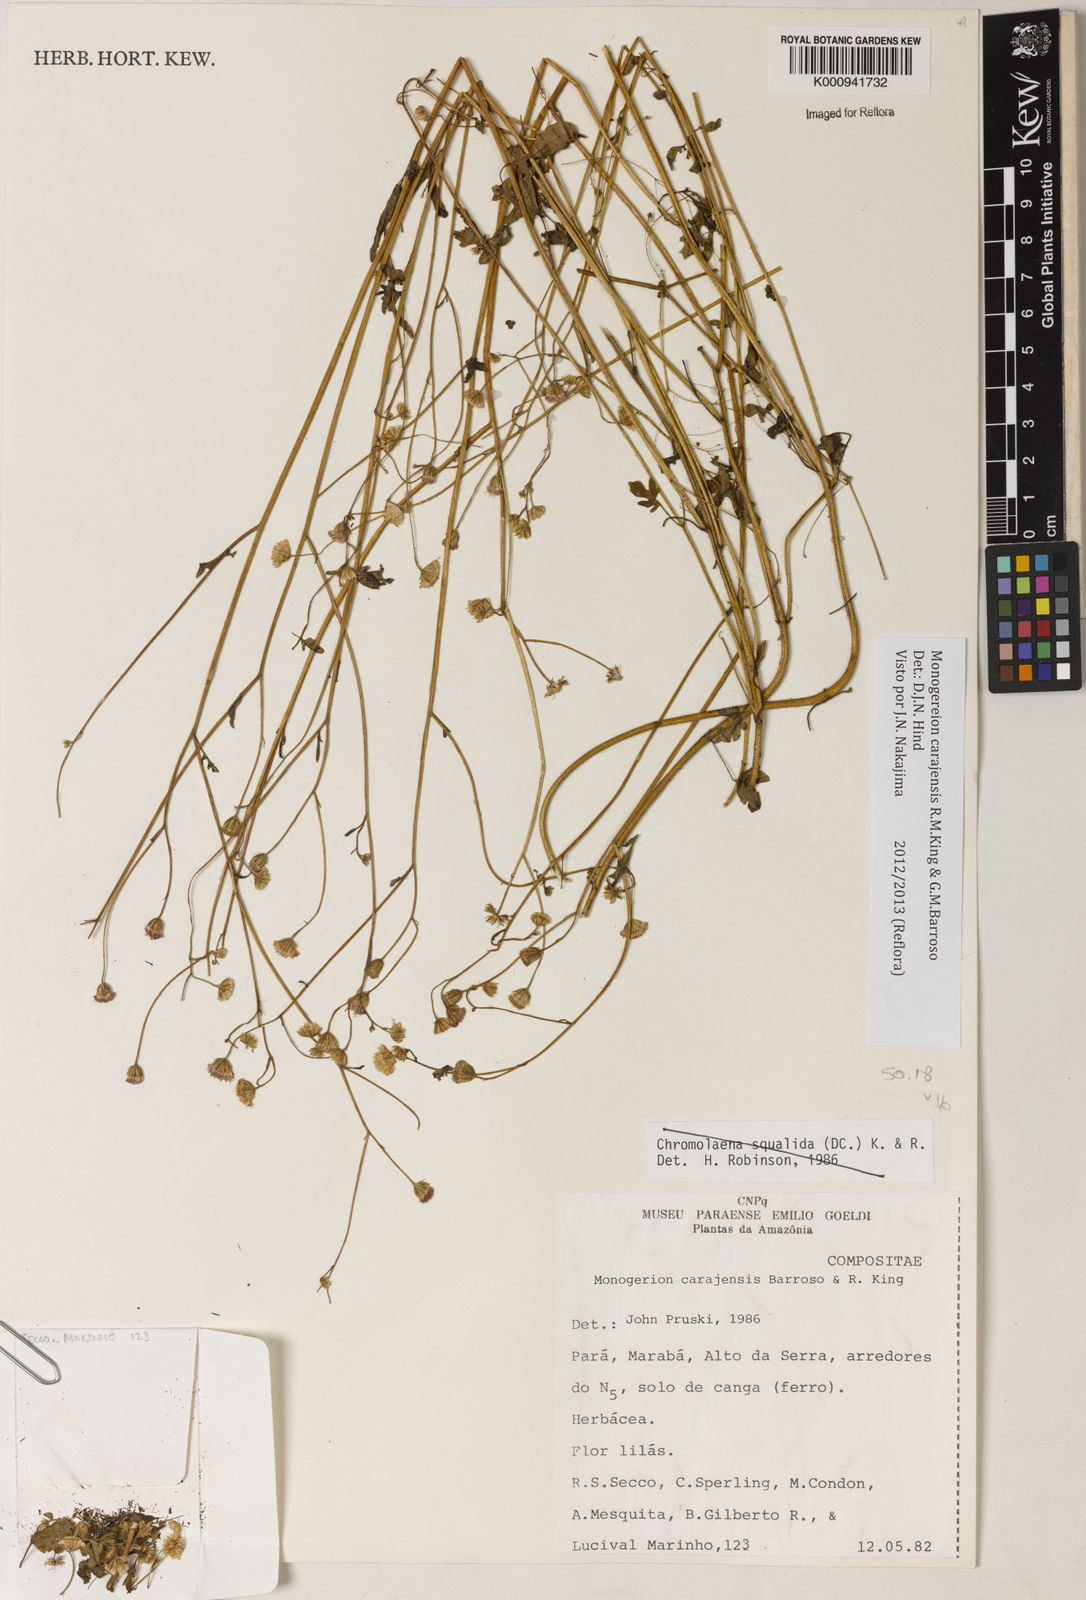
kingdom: Plantae
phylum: Tracheophyta
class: Magnoliopsida
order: Asterales
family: Asteraceae
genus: Monogereion
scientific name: Monogereion carajensis
